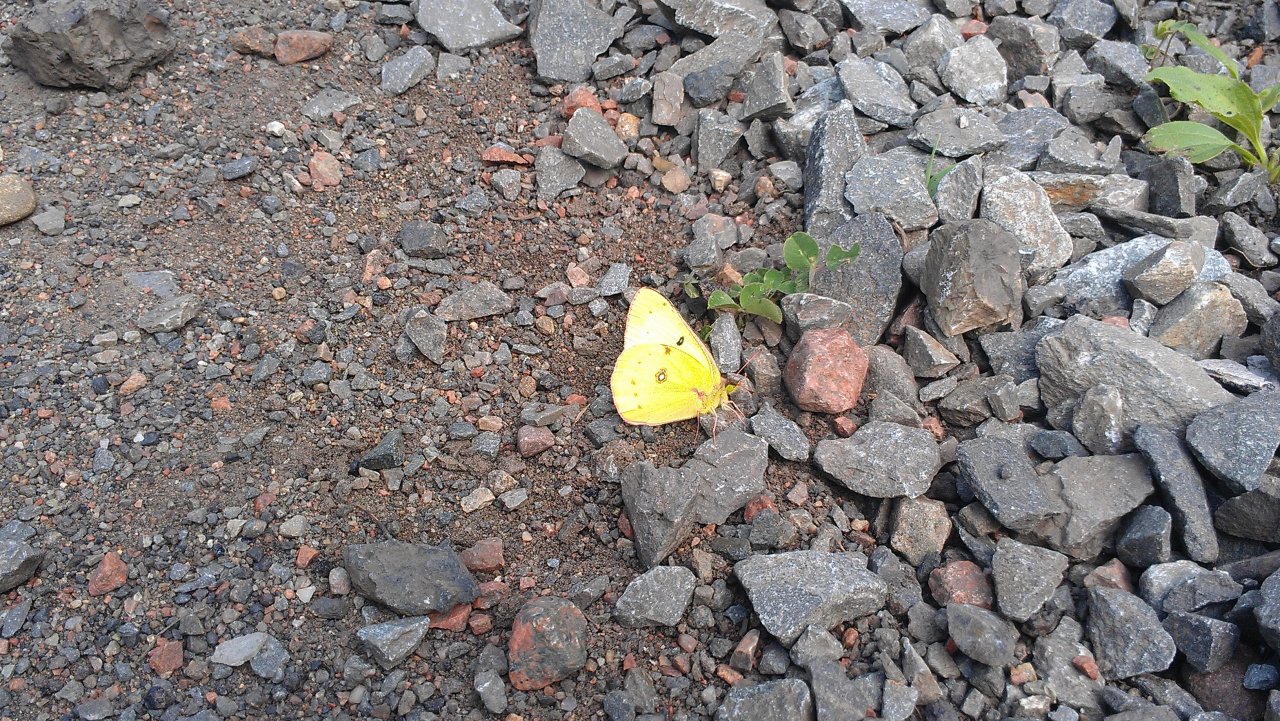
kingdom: Animalia
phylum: Arthropoda
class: Insecta
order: Lepidoptera
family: Pieridae
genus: Colias
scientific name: Colias philodice
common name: Clouded Sulphur
